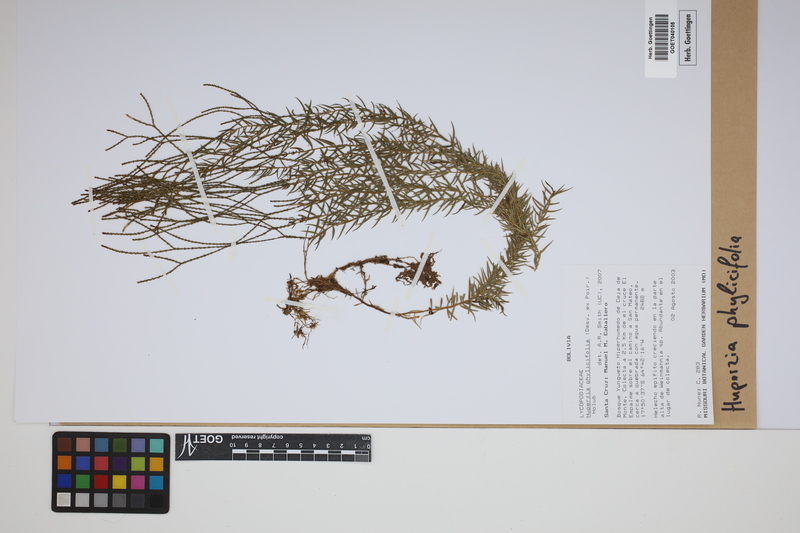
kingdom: Plantae
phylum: Tracheophyta
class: Lycopodiopsida
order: Lycopodiales
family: Lycopodiaceae
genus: Phlegmariurus
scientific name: Phlegmariurus phylicifolius
